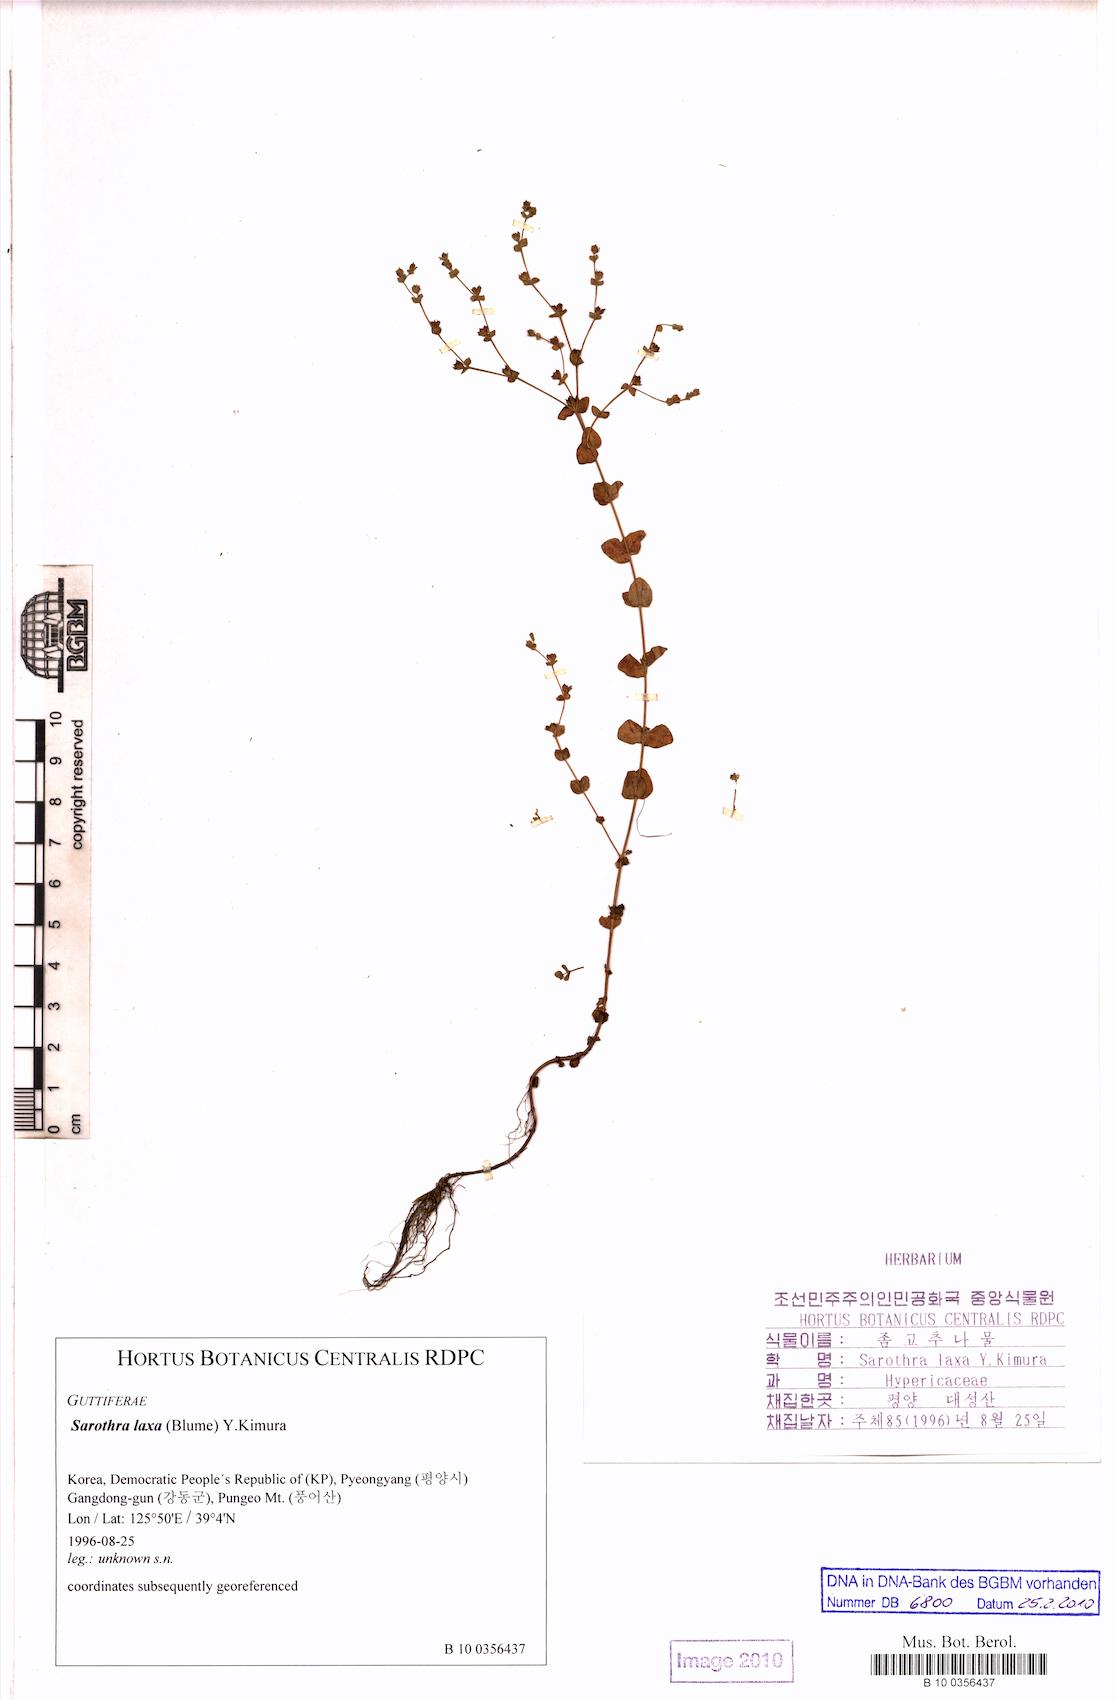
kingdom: Plantae
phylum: Tracheophyta
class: Magnoliopsida
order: Malpighiales
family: Hypericaceae
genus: Hypericum
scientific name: Hypericum japonicum
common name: Matted st. john's-wort
